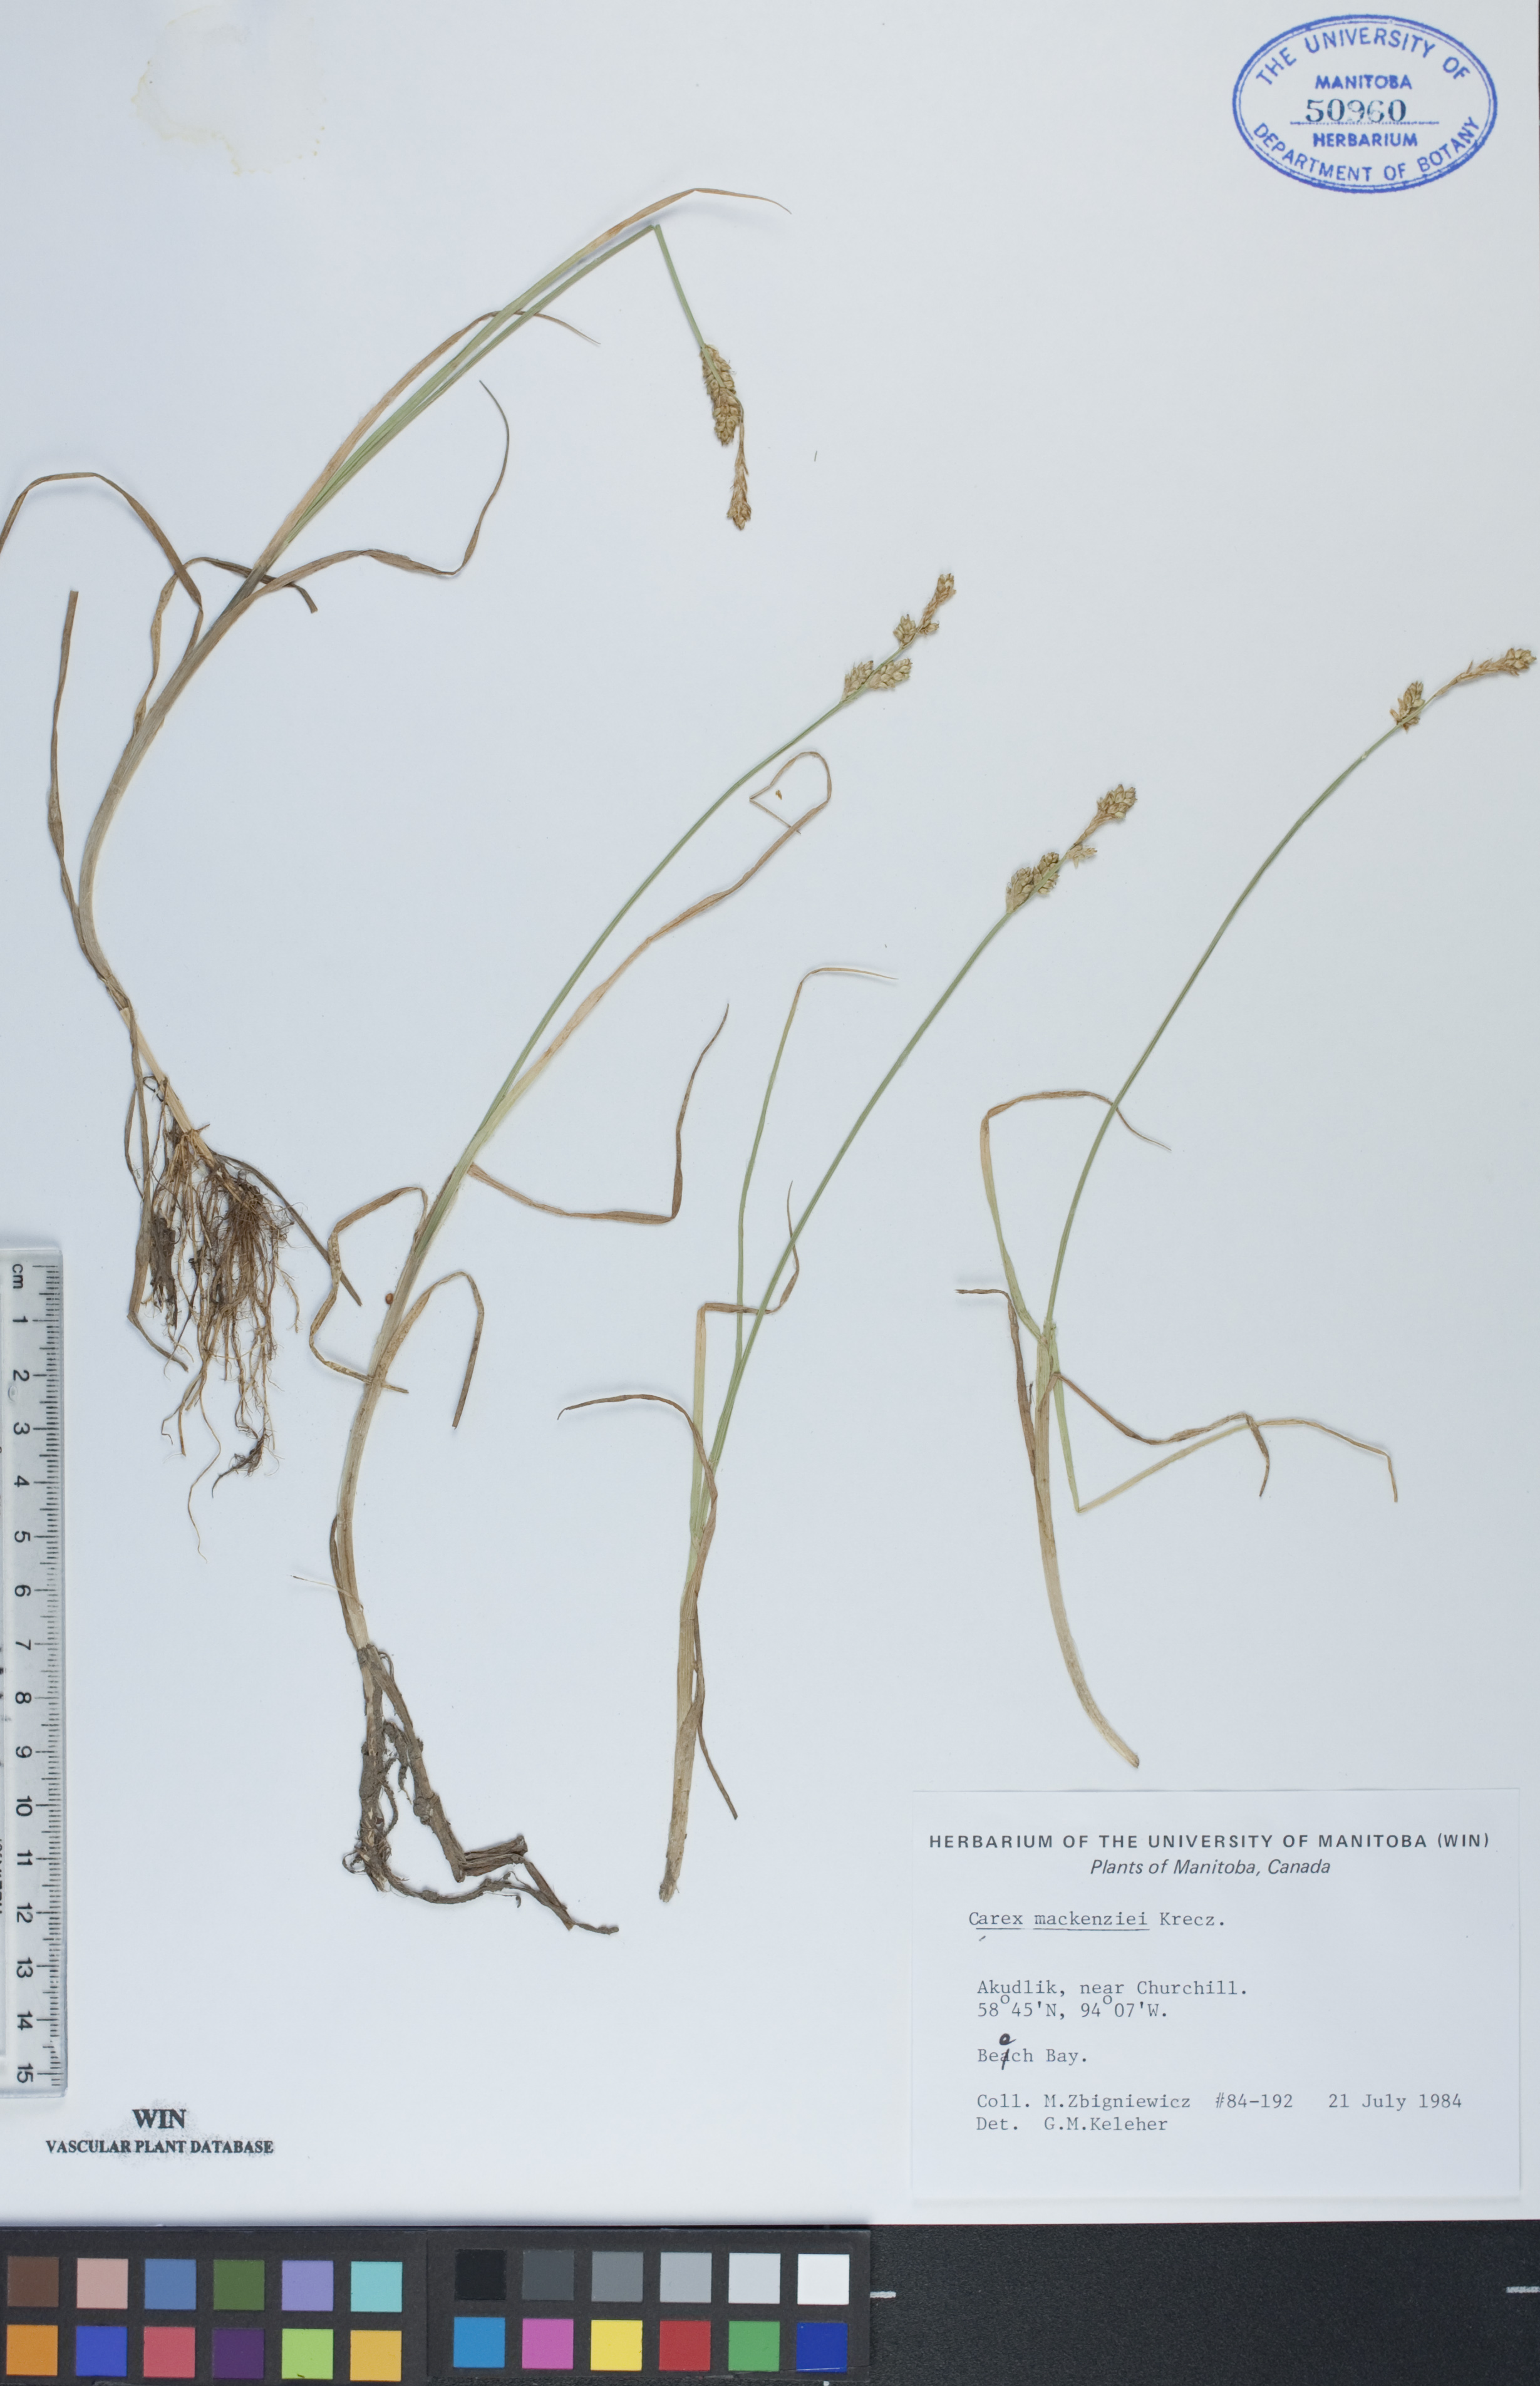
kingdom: Plantae
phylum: Tracheophyta
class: Liliopsida
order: Poales
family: Cyperaceae
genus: Carex
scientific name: Carex mackenziei
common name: Mackenzie's sedge
